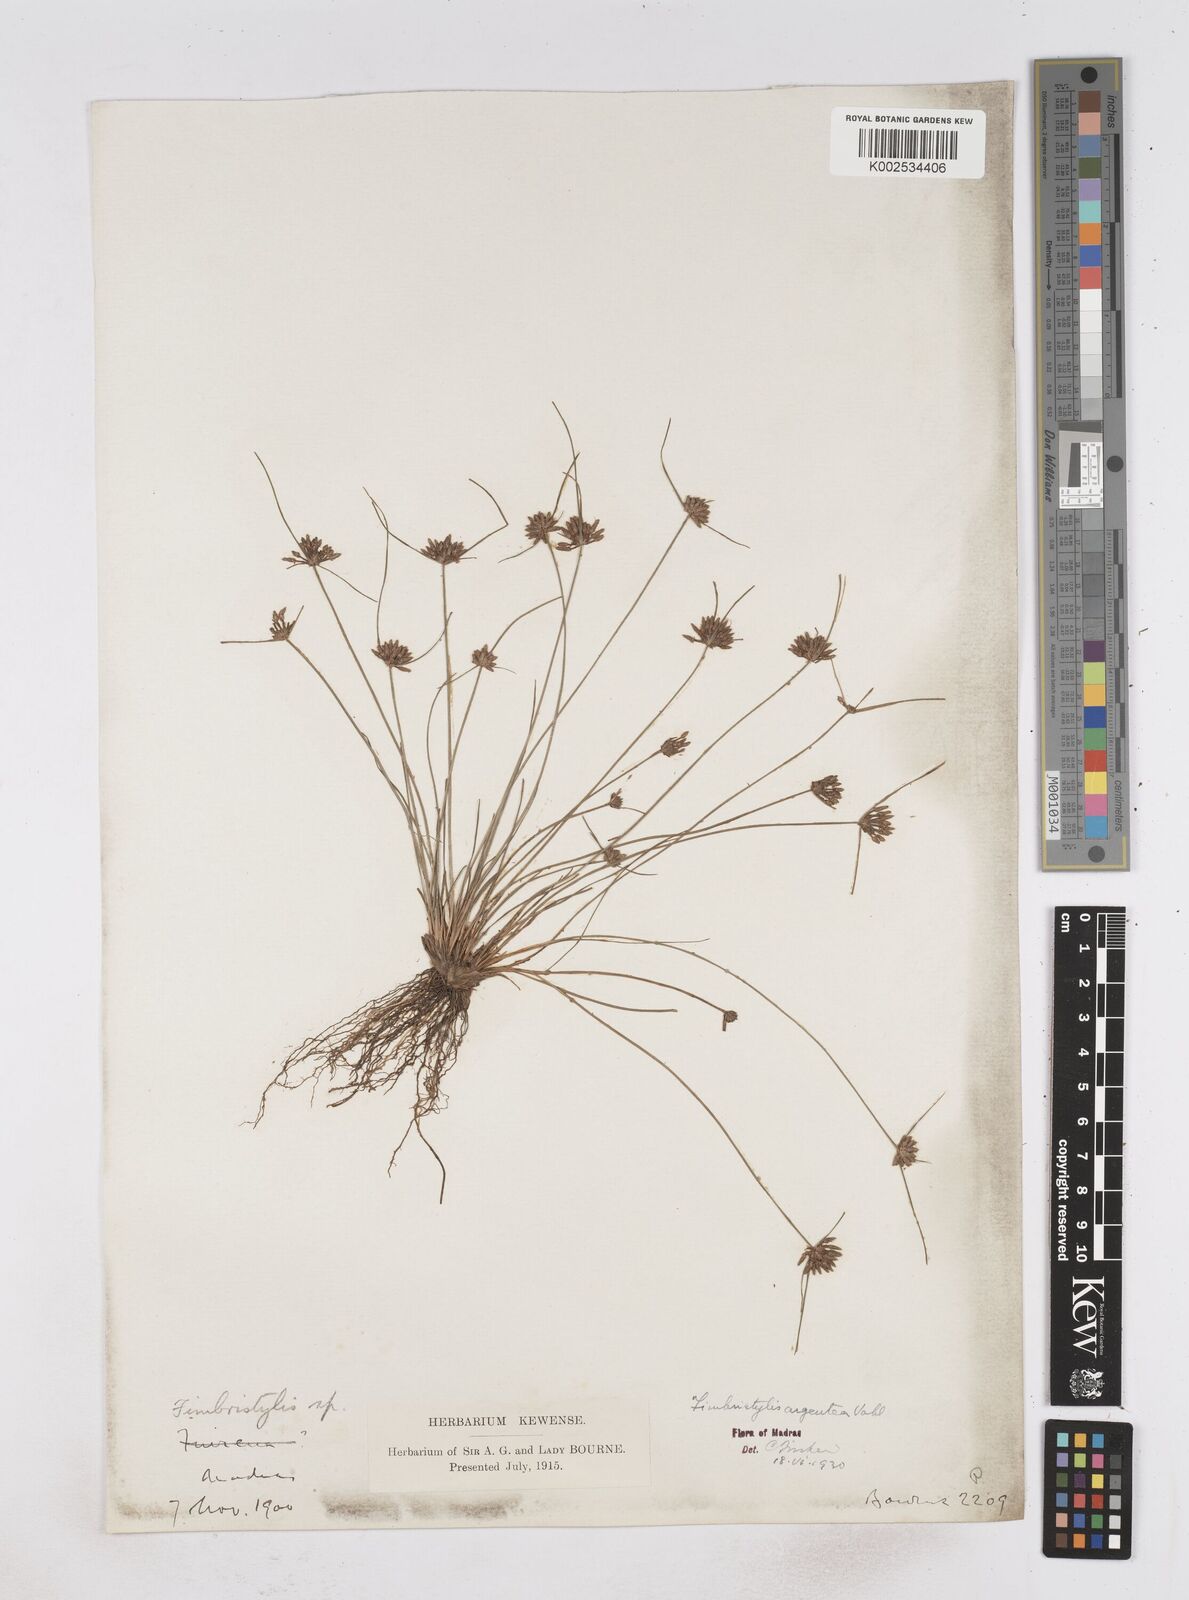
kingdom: Plantae
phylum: Tracheophyta
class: Liliopsida
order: Poales
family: Cyperaceae
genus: Fimbristylis
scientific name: Fimbristylis argentea
